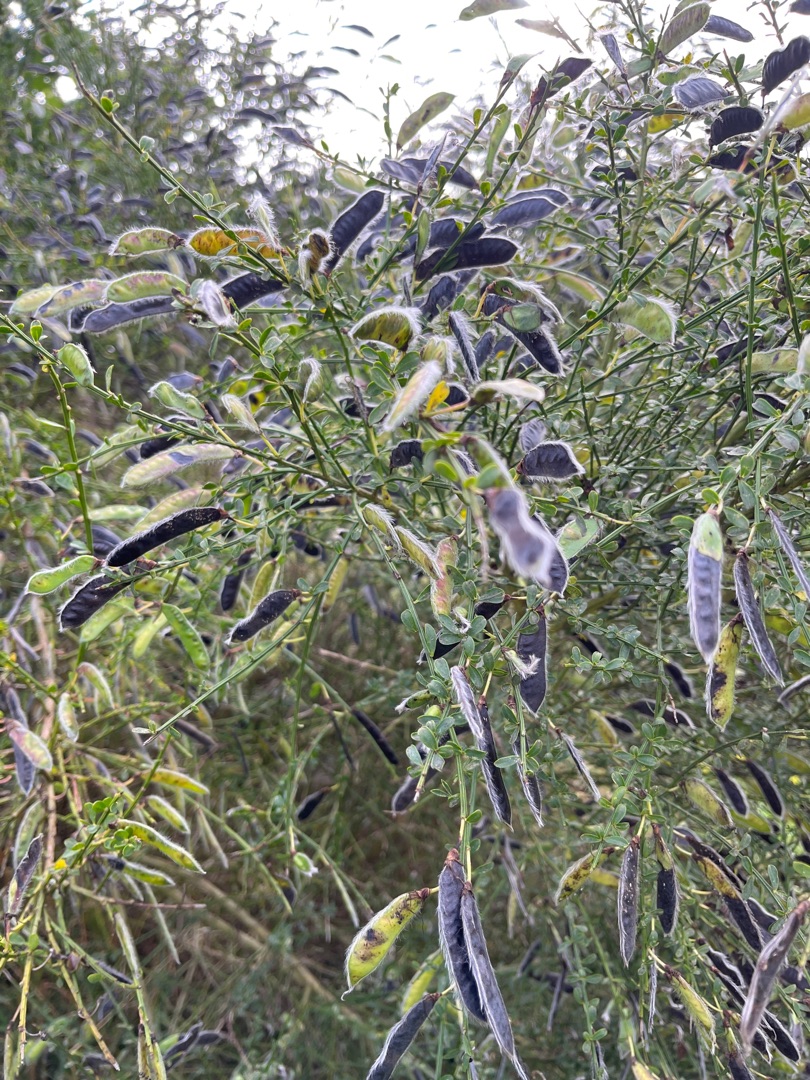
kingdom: Plantae
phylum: Tracheophyta
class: Magnoliopsida
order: Fabales
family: Fabaceae
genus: Cytisus
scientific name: Cytisus scoparius
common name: Almindelig gyvel
